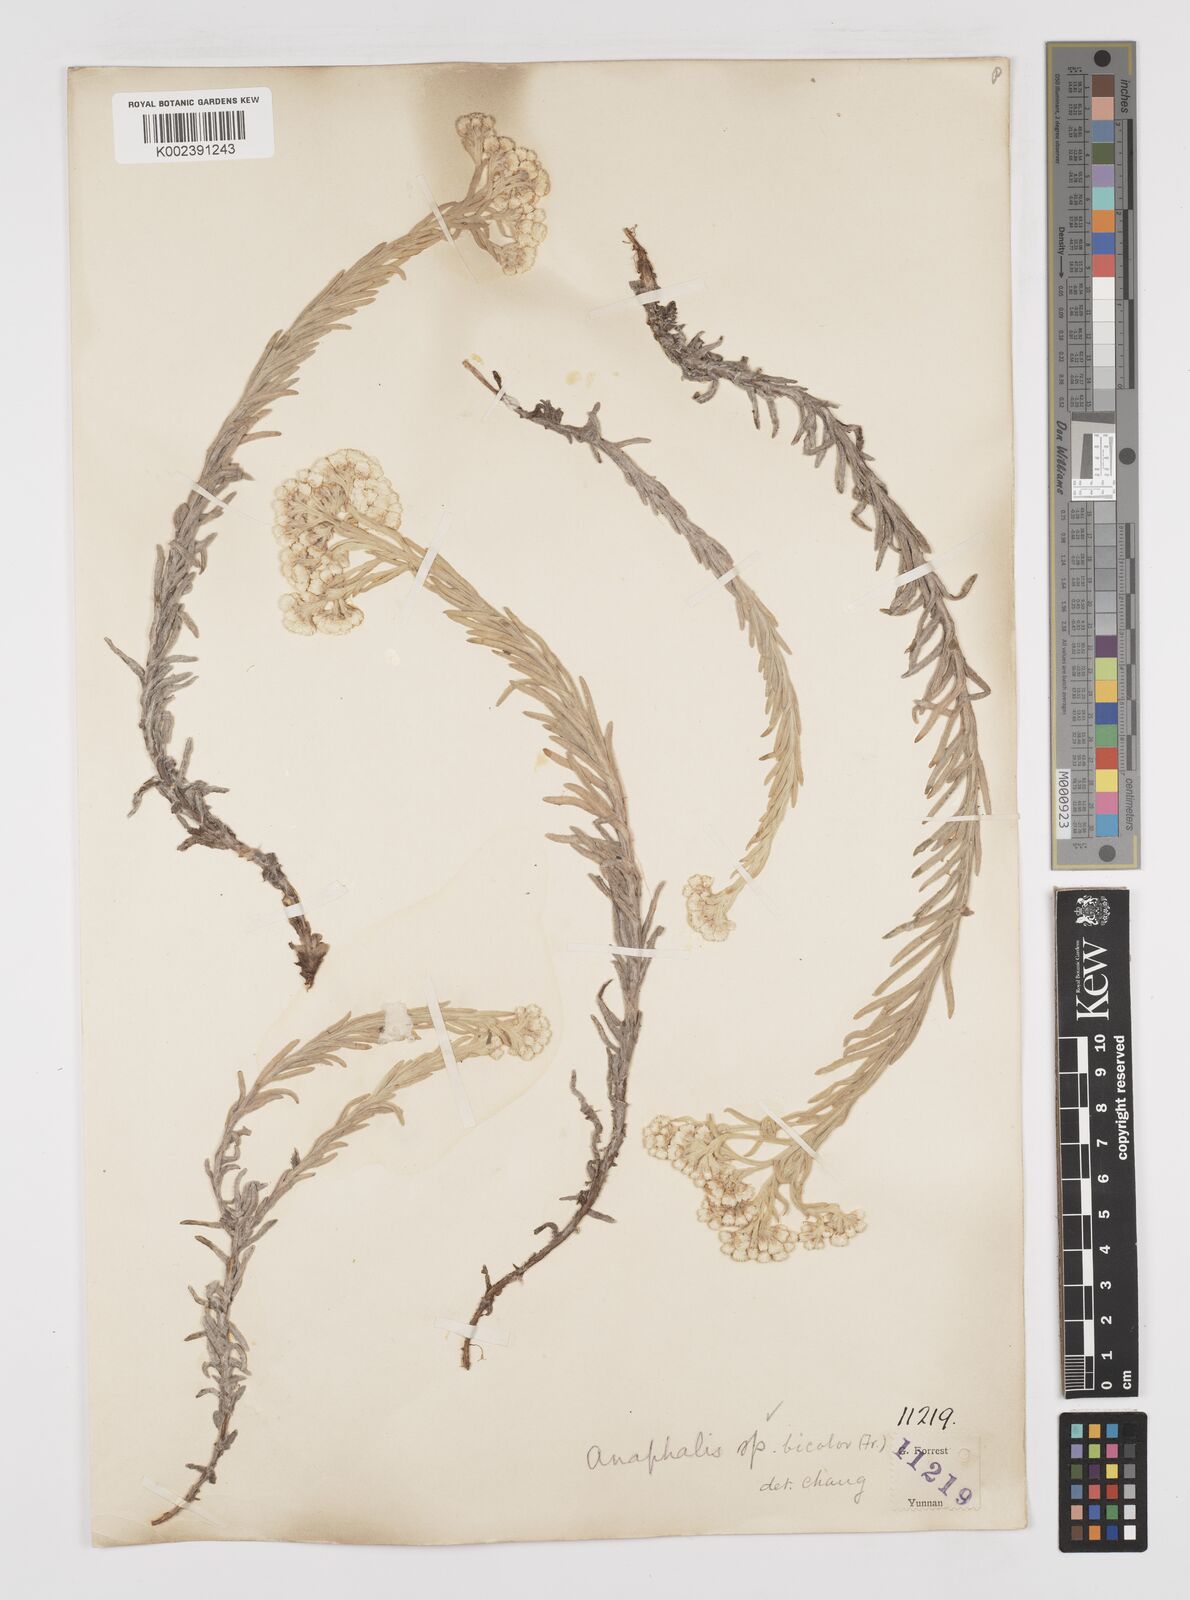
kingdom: Plantae
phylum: Tracheophyta
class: Magnoliopsida
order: Asterales
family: Asteraceae
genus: Anaphalis
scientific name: Anaphalis bicolor
